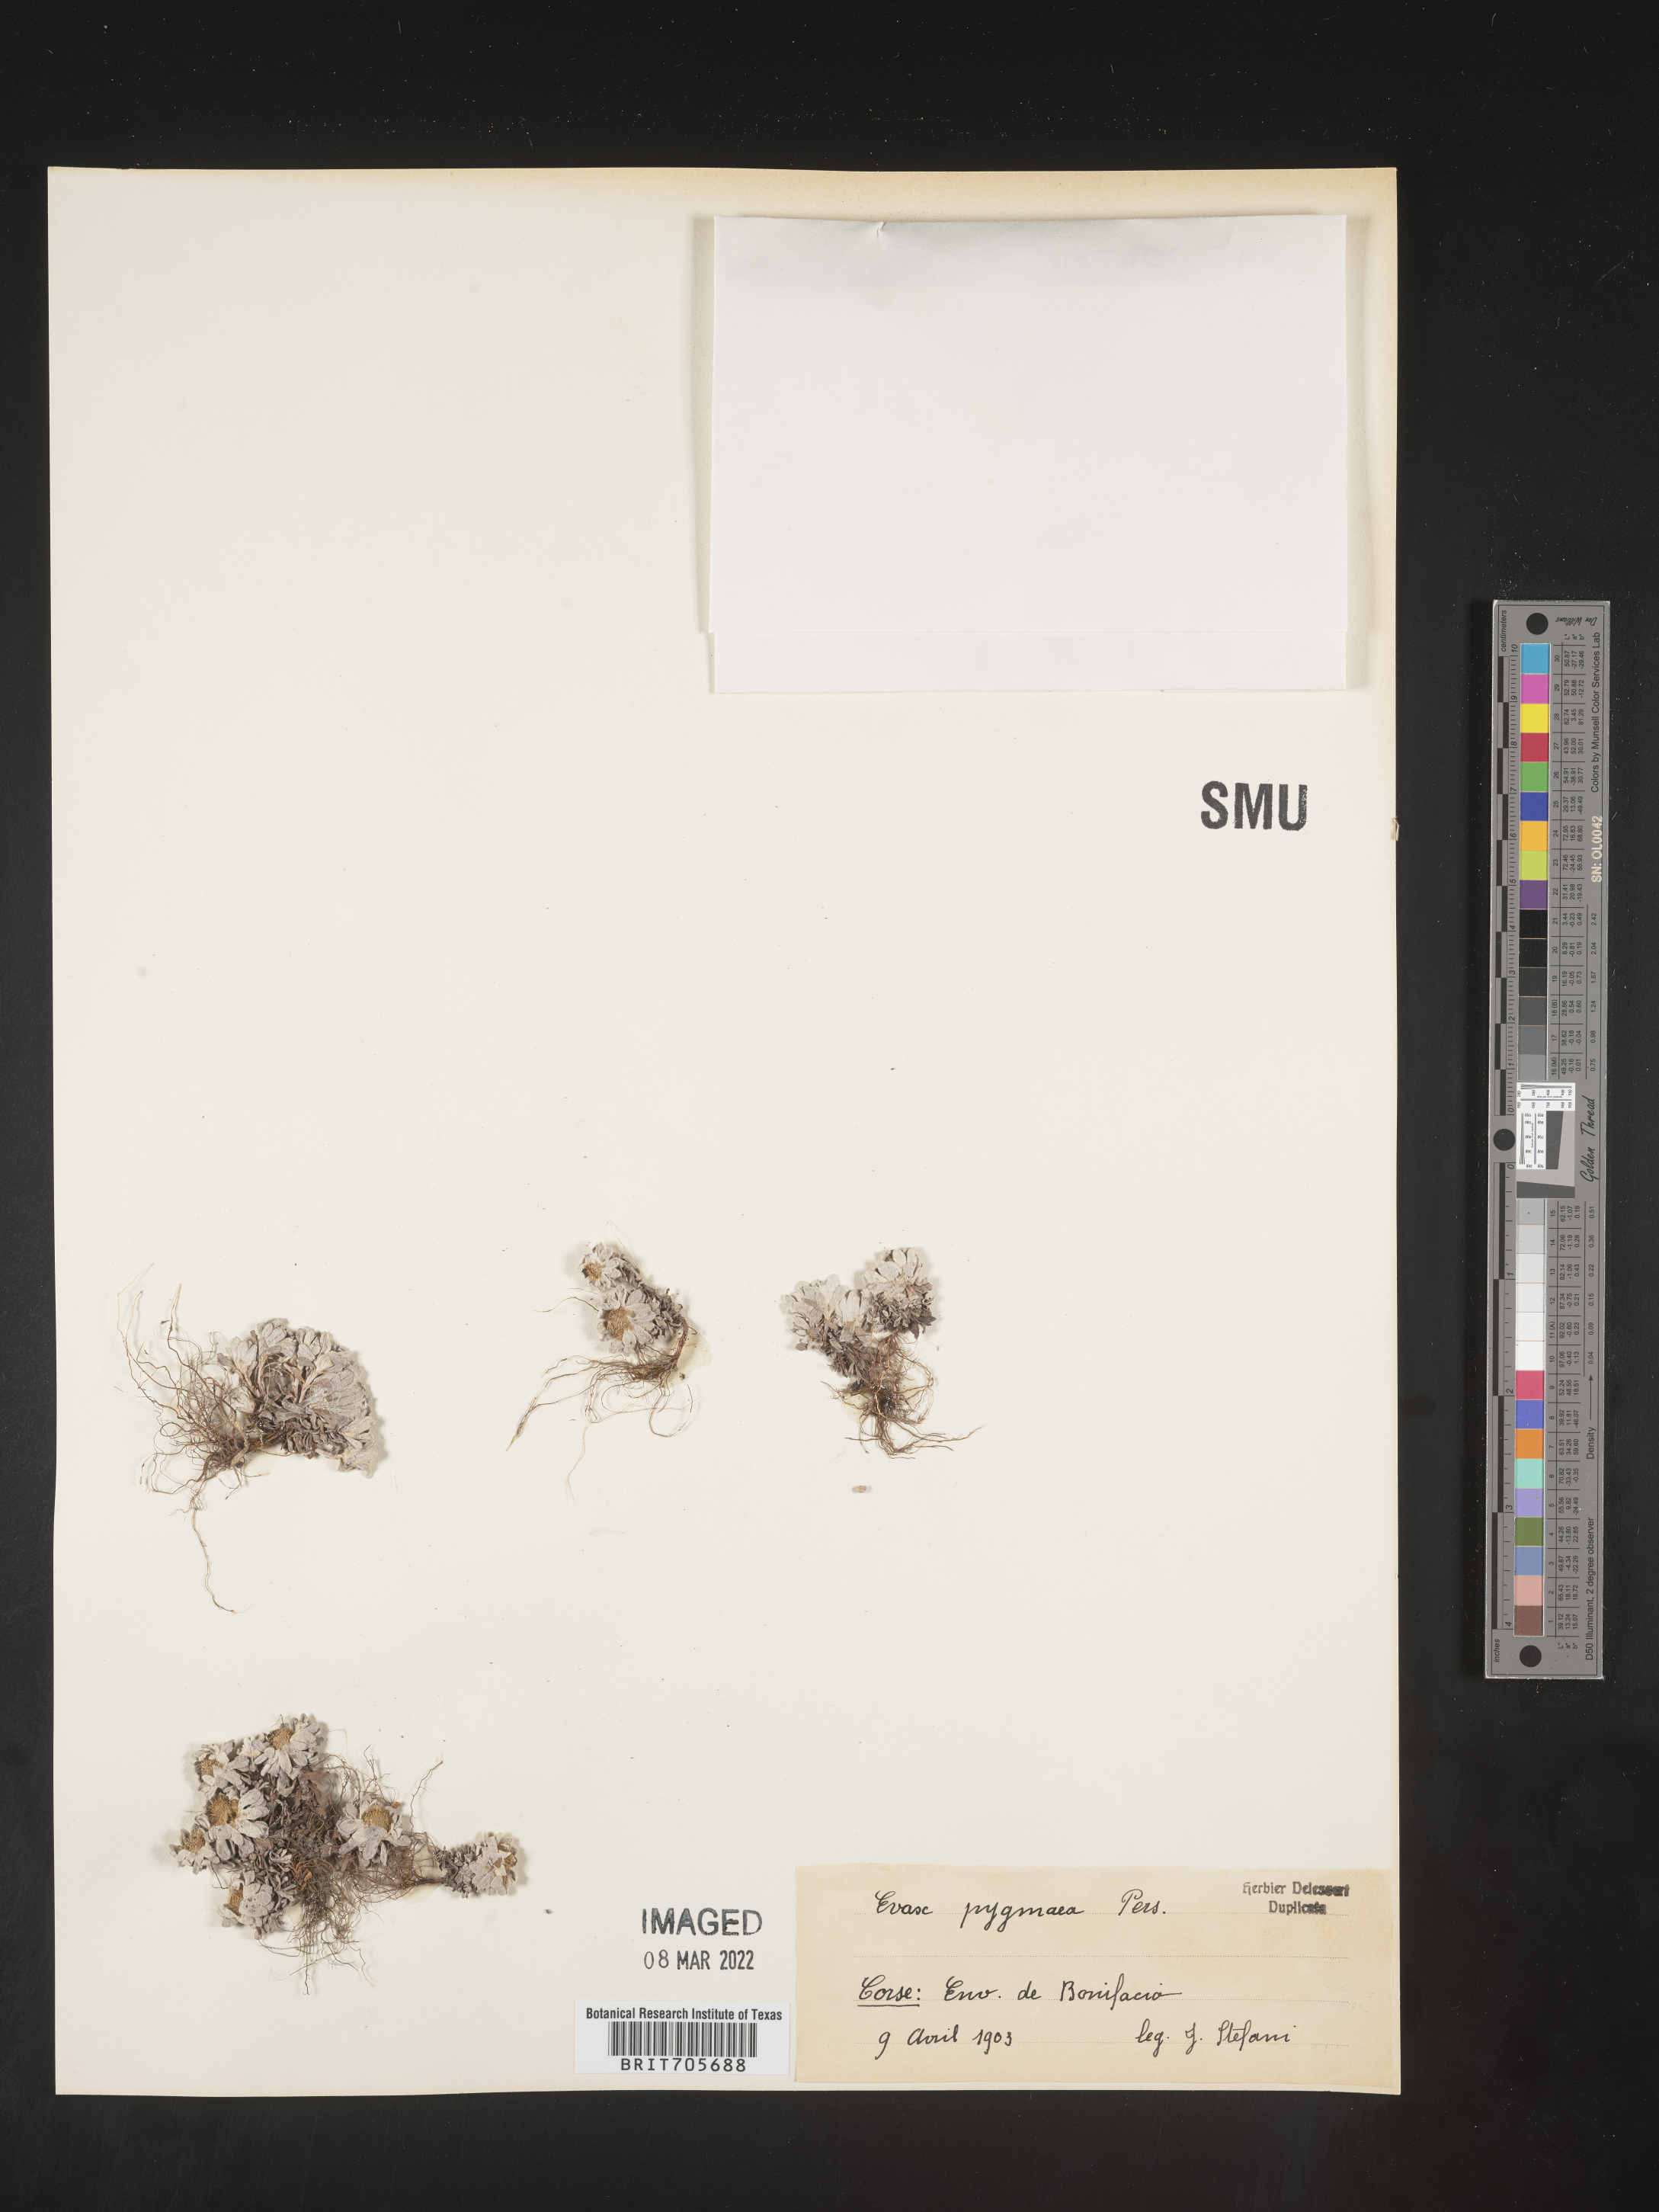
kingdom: Plantae
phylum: Tracheophyta
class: Magnoliopsida
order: Asterales
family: Asteraceae
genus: Filago
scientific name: Filago
